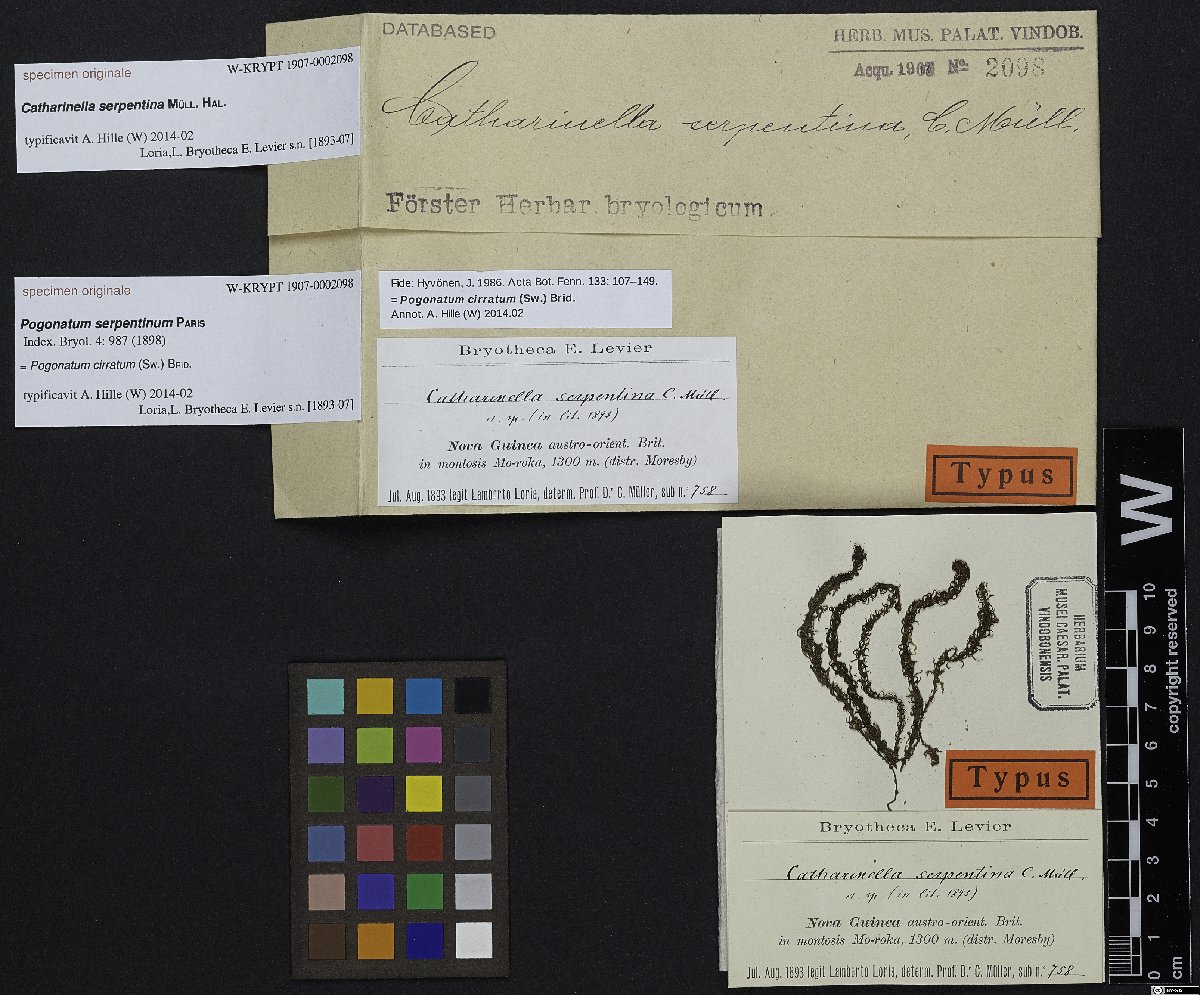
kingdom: Plantae
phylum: Bryophyta
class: Polytrichopsida
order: Polytrichales
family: Polytrichaceae
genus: Pogonatum
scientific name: Pogonatum cirratum
